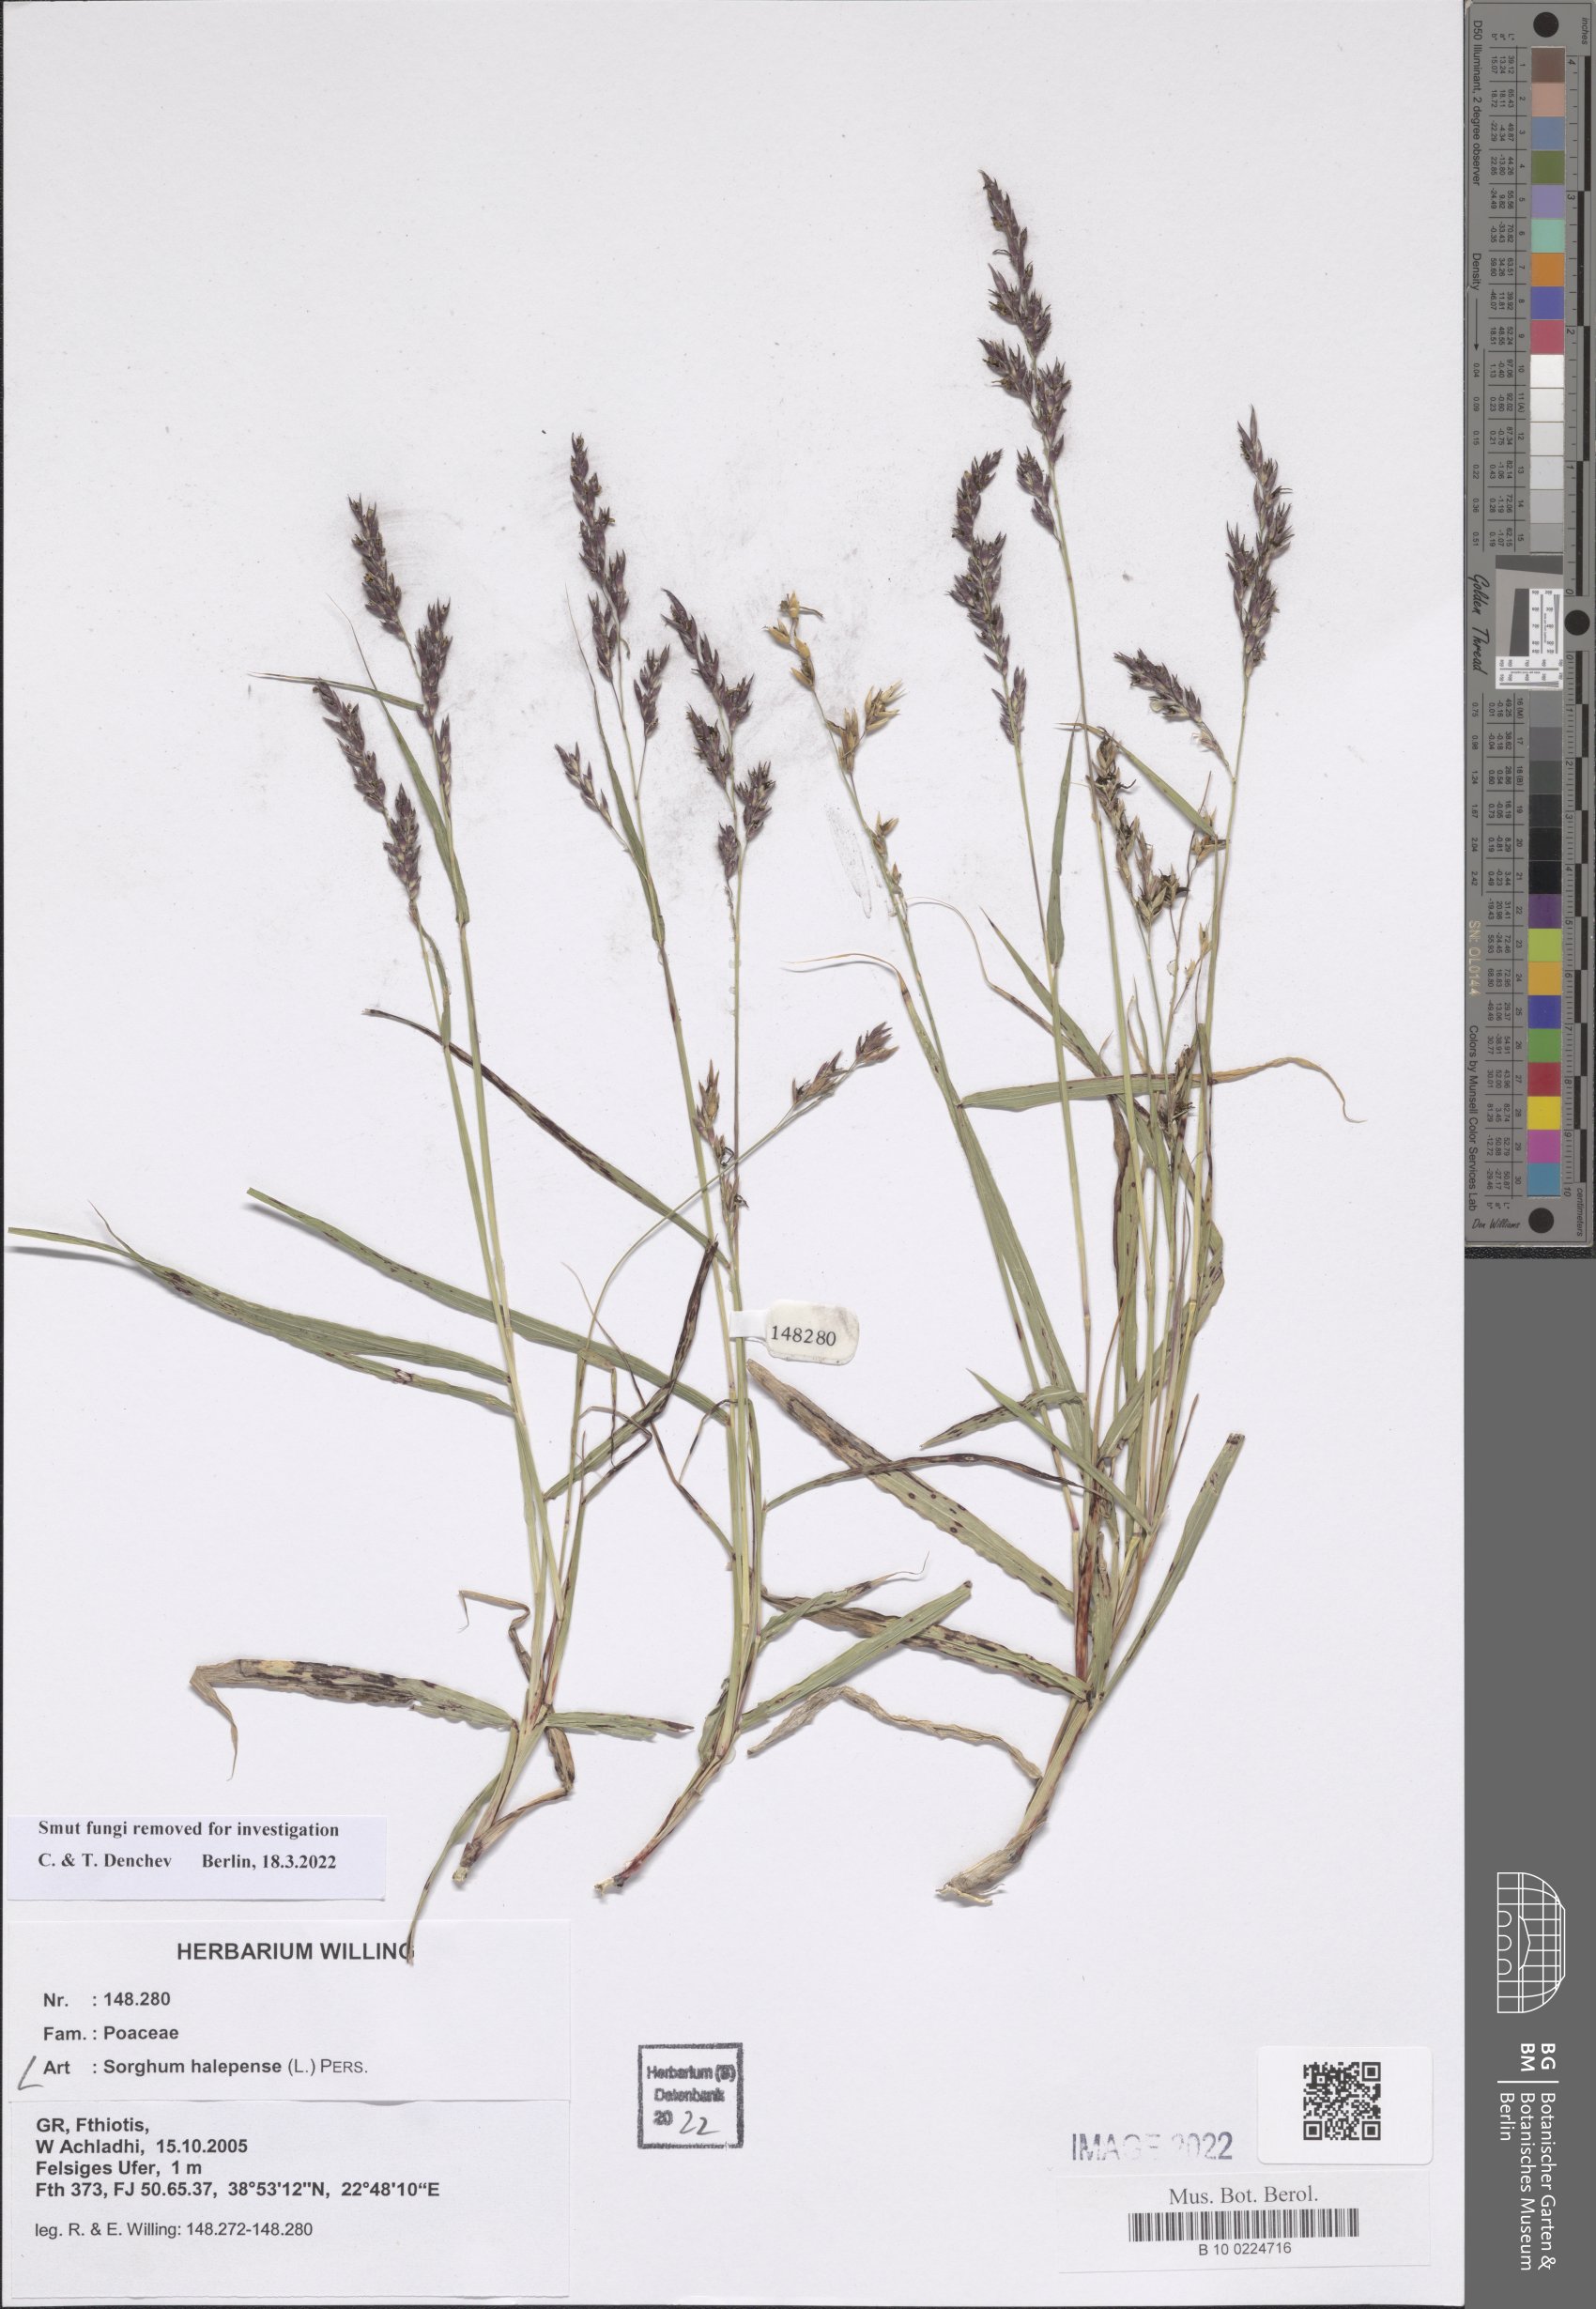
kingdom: Plantae
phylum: Tracheophyta
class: Liliopsida
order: Poales
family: Poaceae
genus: Sorghum
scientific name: Sorghum halepense
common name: Johnson-grass
